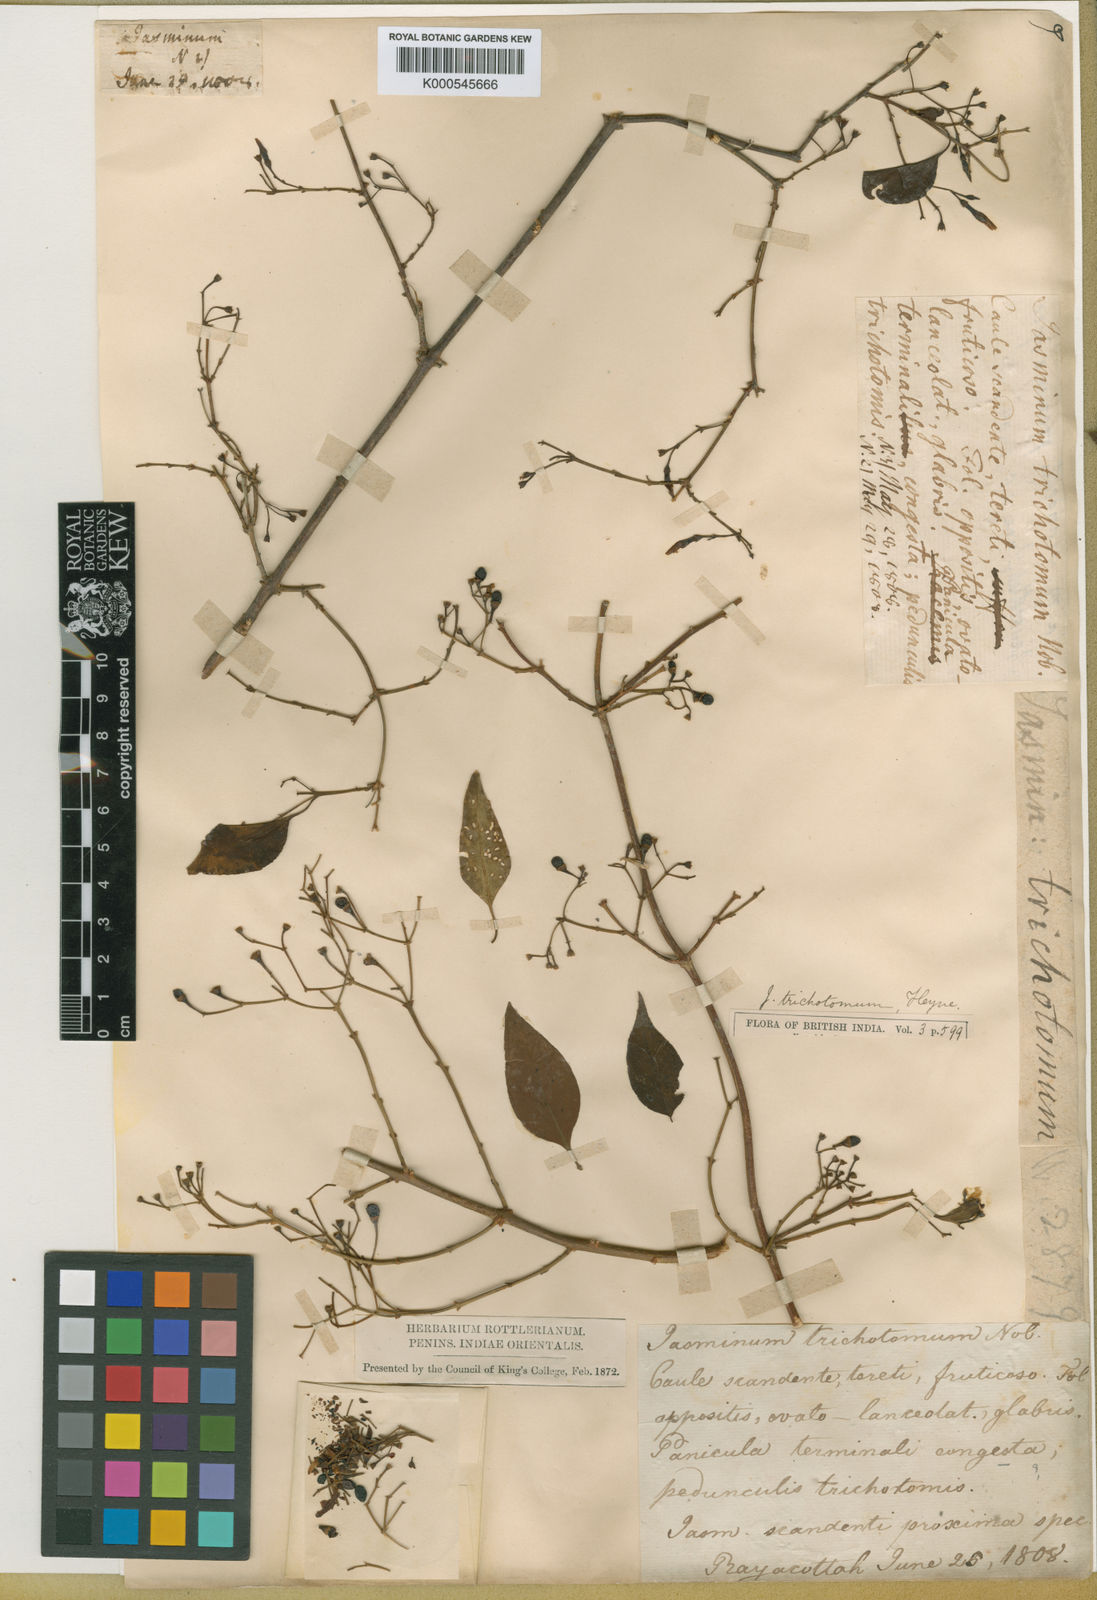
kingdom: Plantae
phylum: Tracheophyta
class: Magnoliopsida
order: Lamiales
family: Oleaceae
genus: Jasminum
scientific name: Jasminum trichotomum
